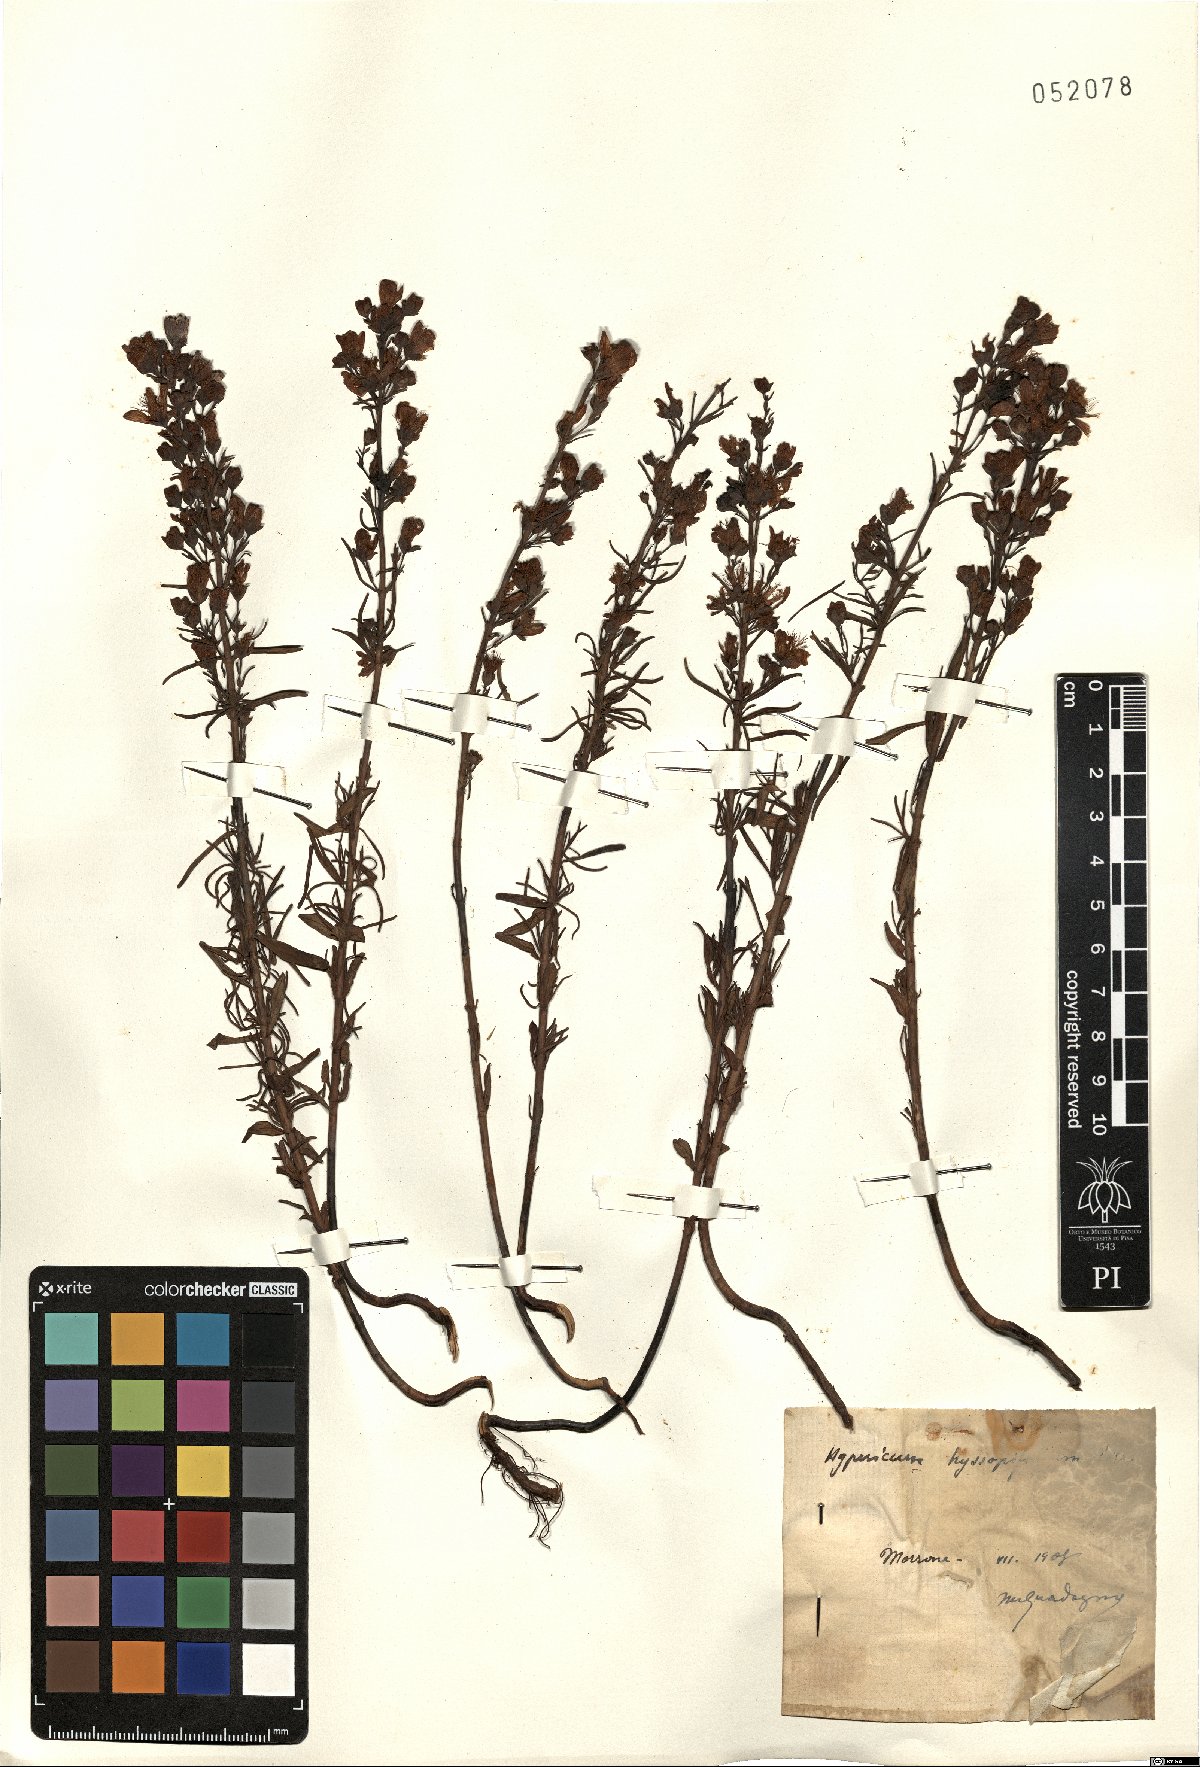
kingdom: Plantae
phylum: Tracheophyta
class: Magnoliopsida
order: Malpighiales
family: Hypericaceae
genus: Hypericum
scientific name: Hypericum hyssopifolium
